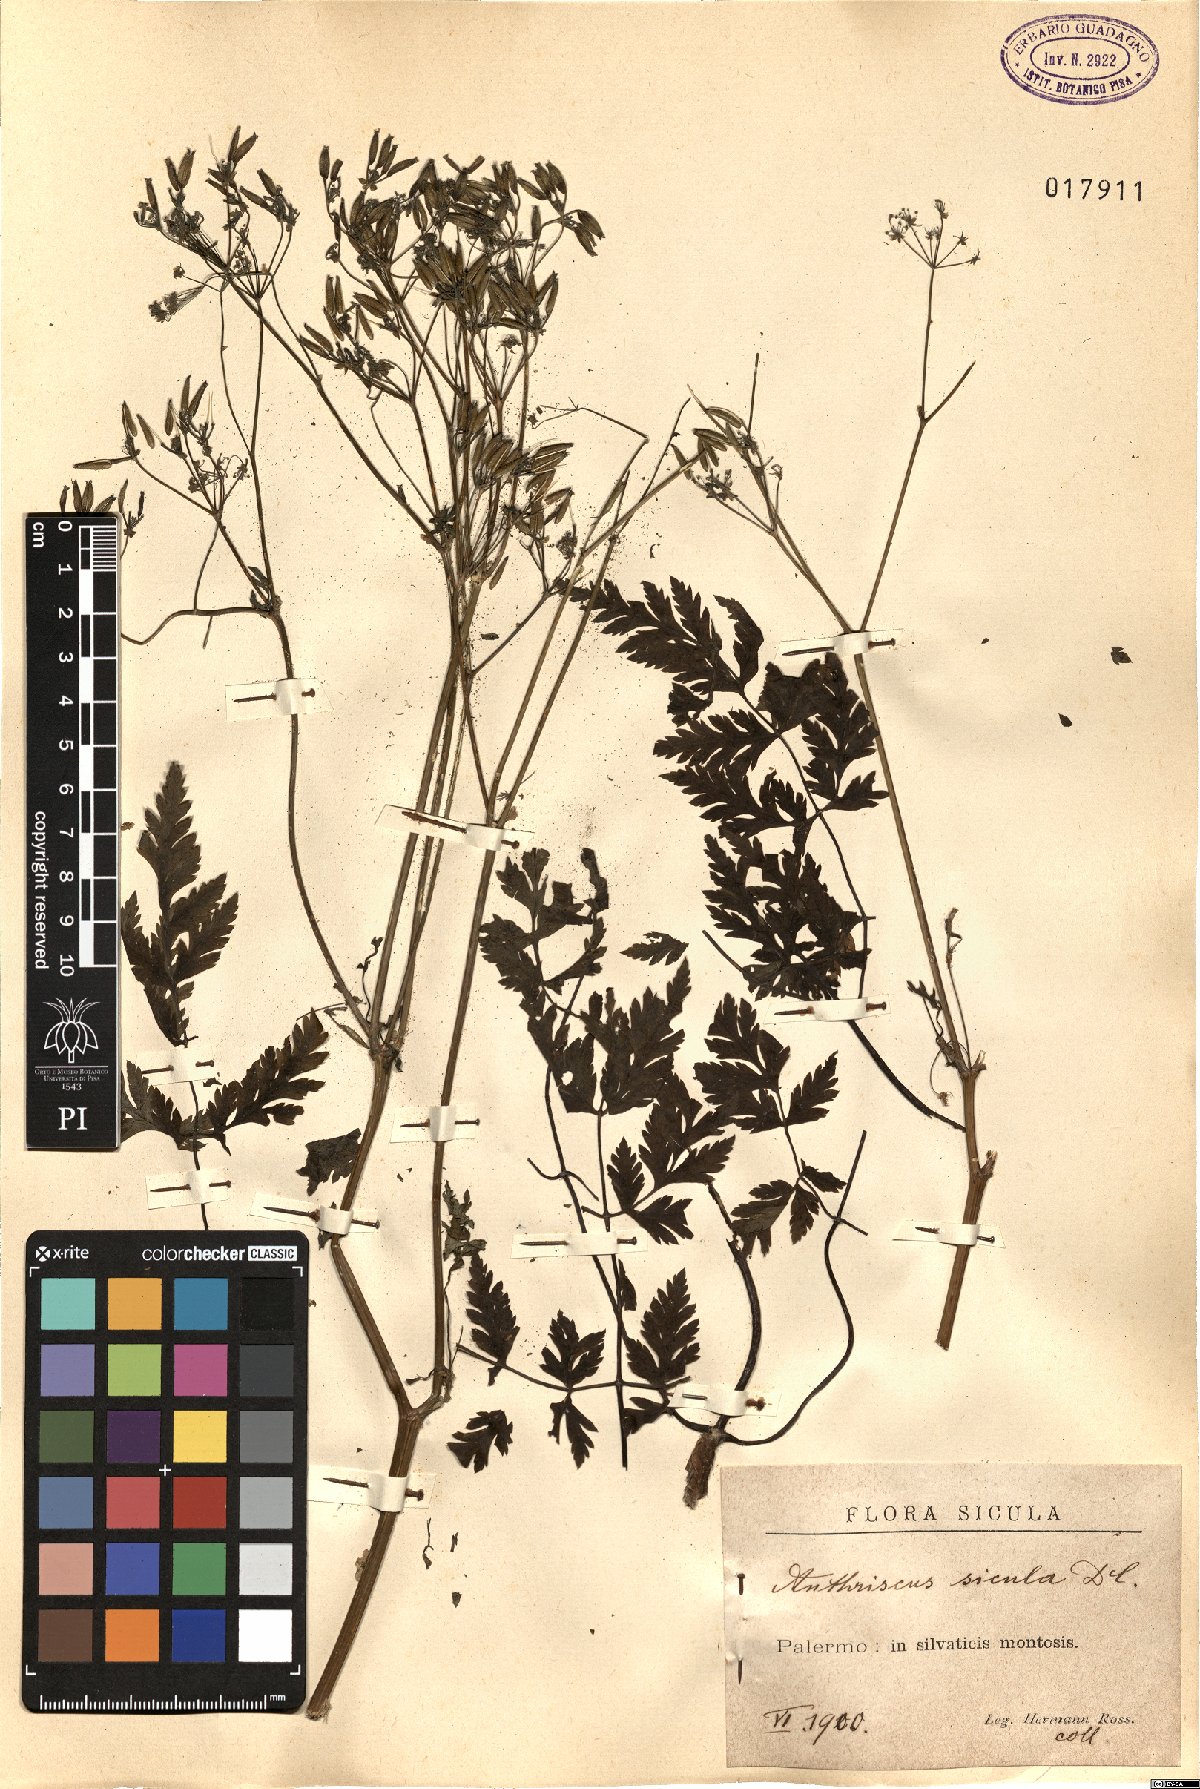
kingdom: Plantae
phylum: Tracheophyta
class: Magnoliopsida
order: Apiales
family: Apiaceae
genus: Anthriscus
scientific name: Anthriscus sicula
